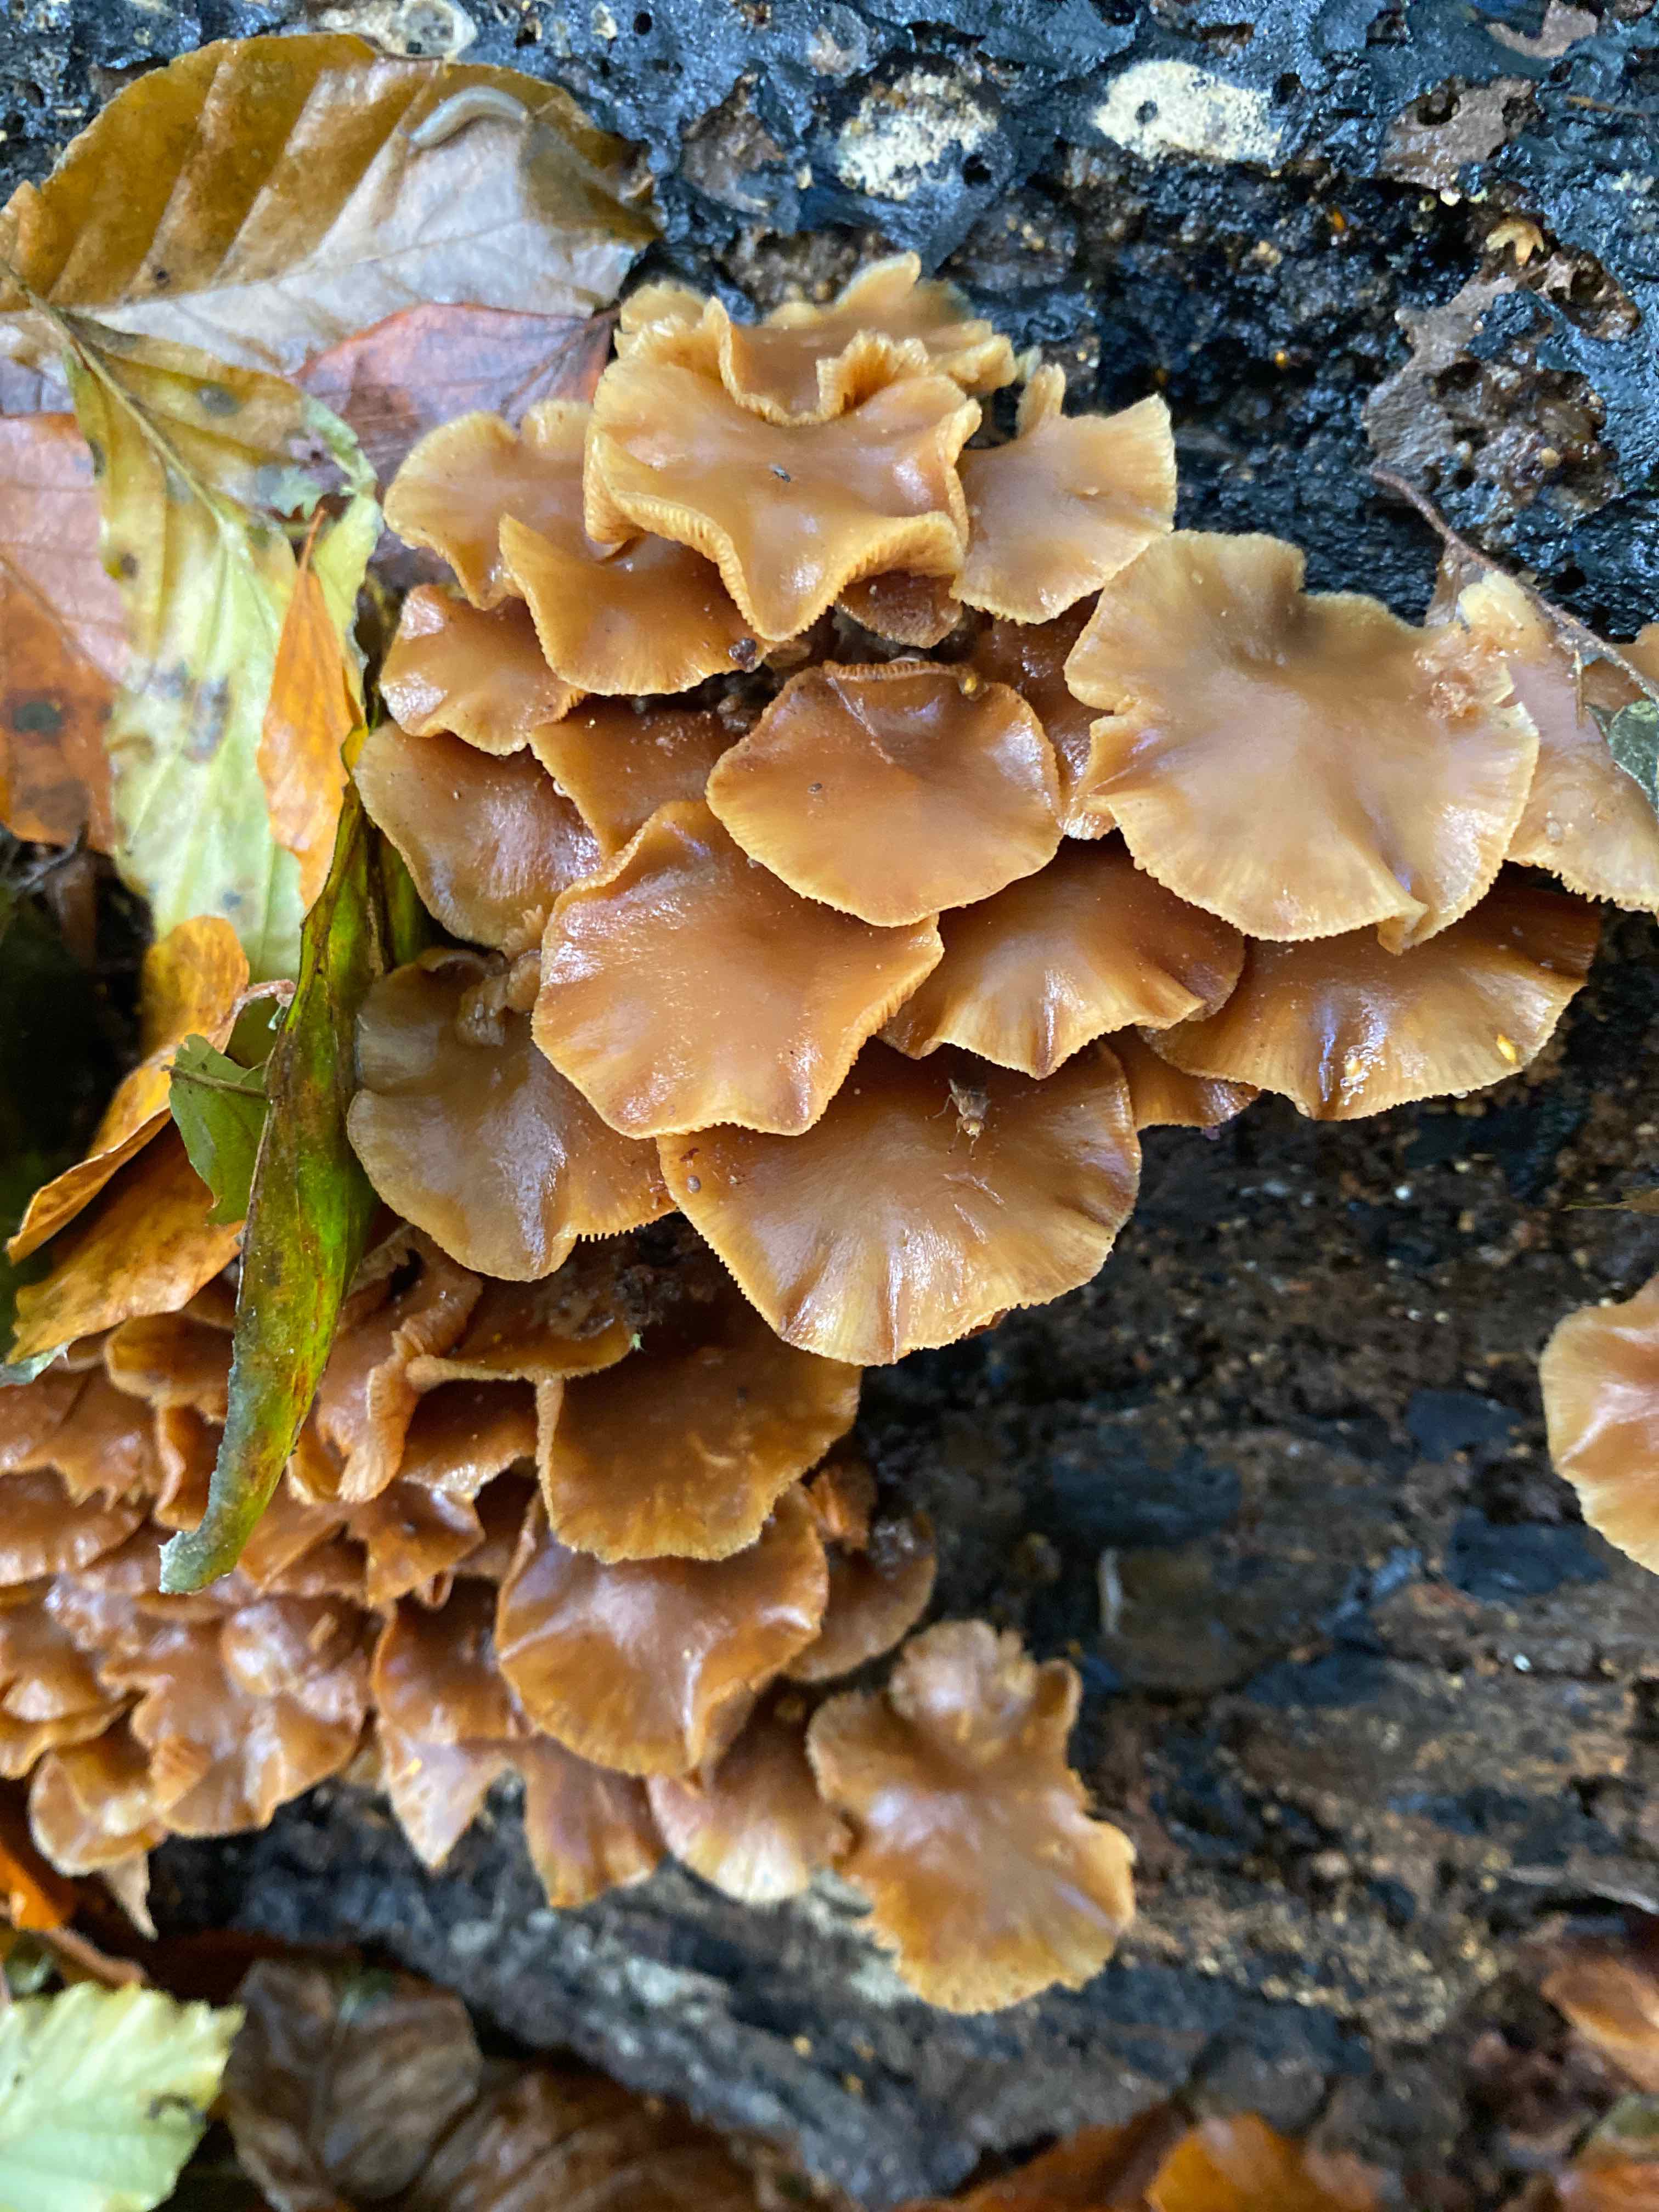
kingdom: Fungi
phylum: Basidiomycota
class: Agaricomycetes
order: Agaricales
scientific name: Agaricales
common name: champignonordenen
